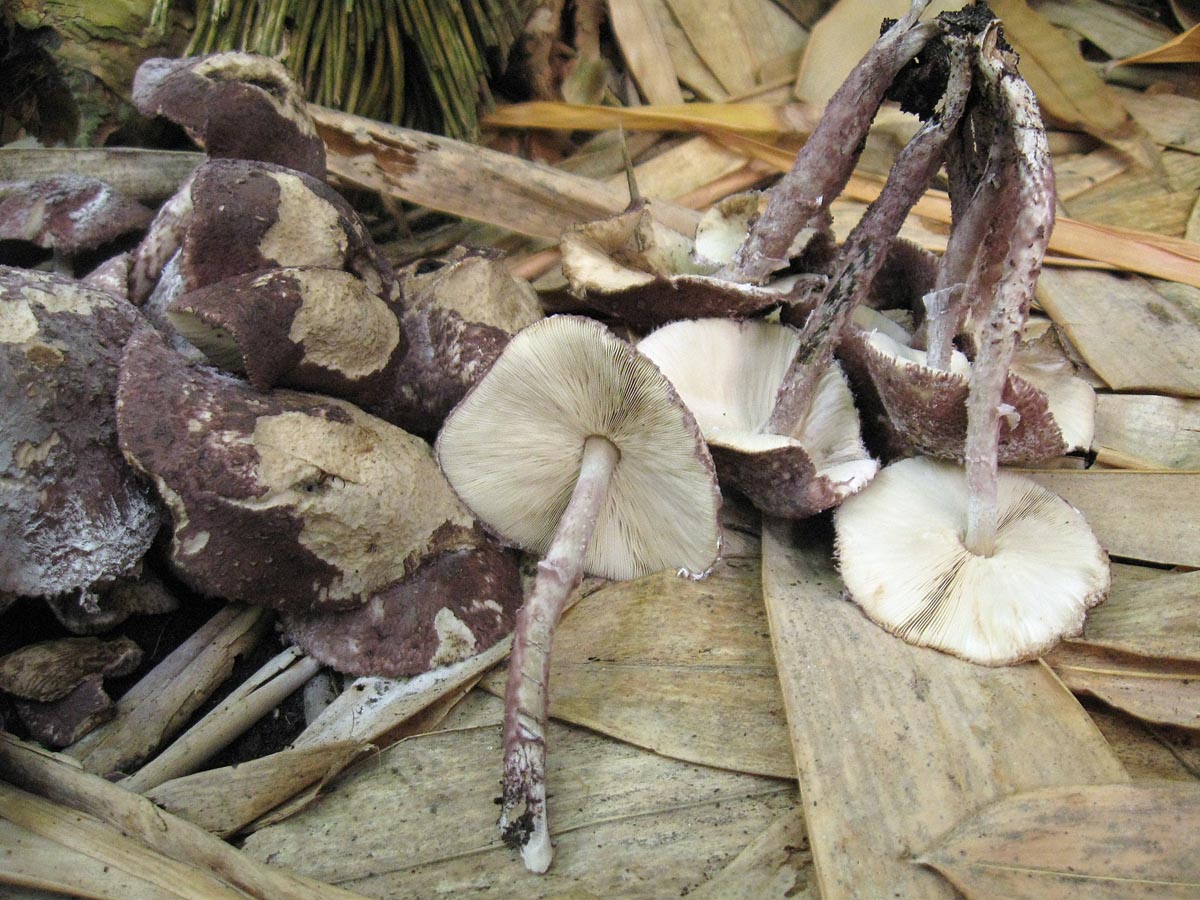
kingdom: Fungi
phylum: Basidiomycota
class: Agaricomycetes
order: Agaricales
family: Agaricaceae
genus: Leucoagaricus
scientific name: Leucoagaricus clavipes
